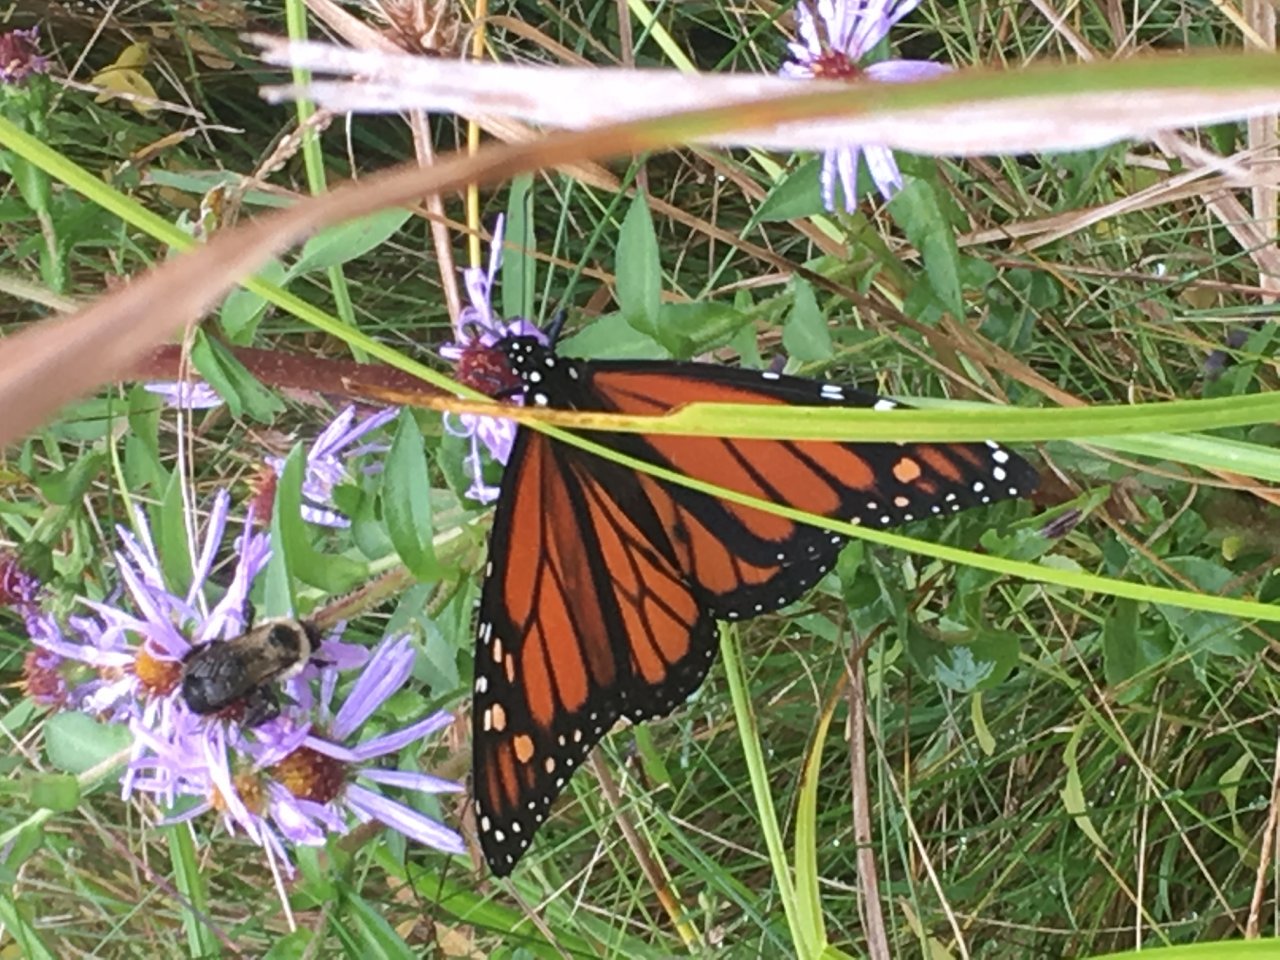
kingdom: Animalia
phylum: Arthropoda
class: Insecta
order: Lepidoptera
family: Nymphalidae
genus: Danaus
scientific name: Danaus plexippus
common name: Monarch
